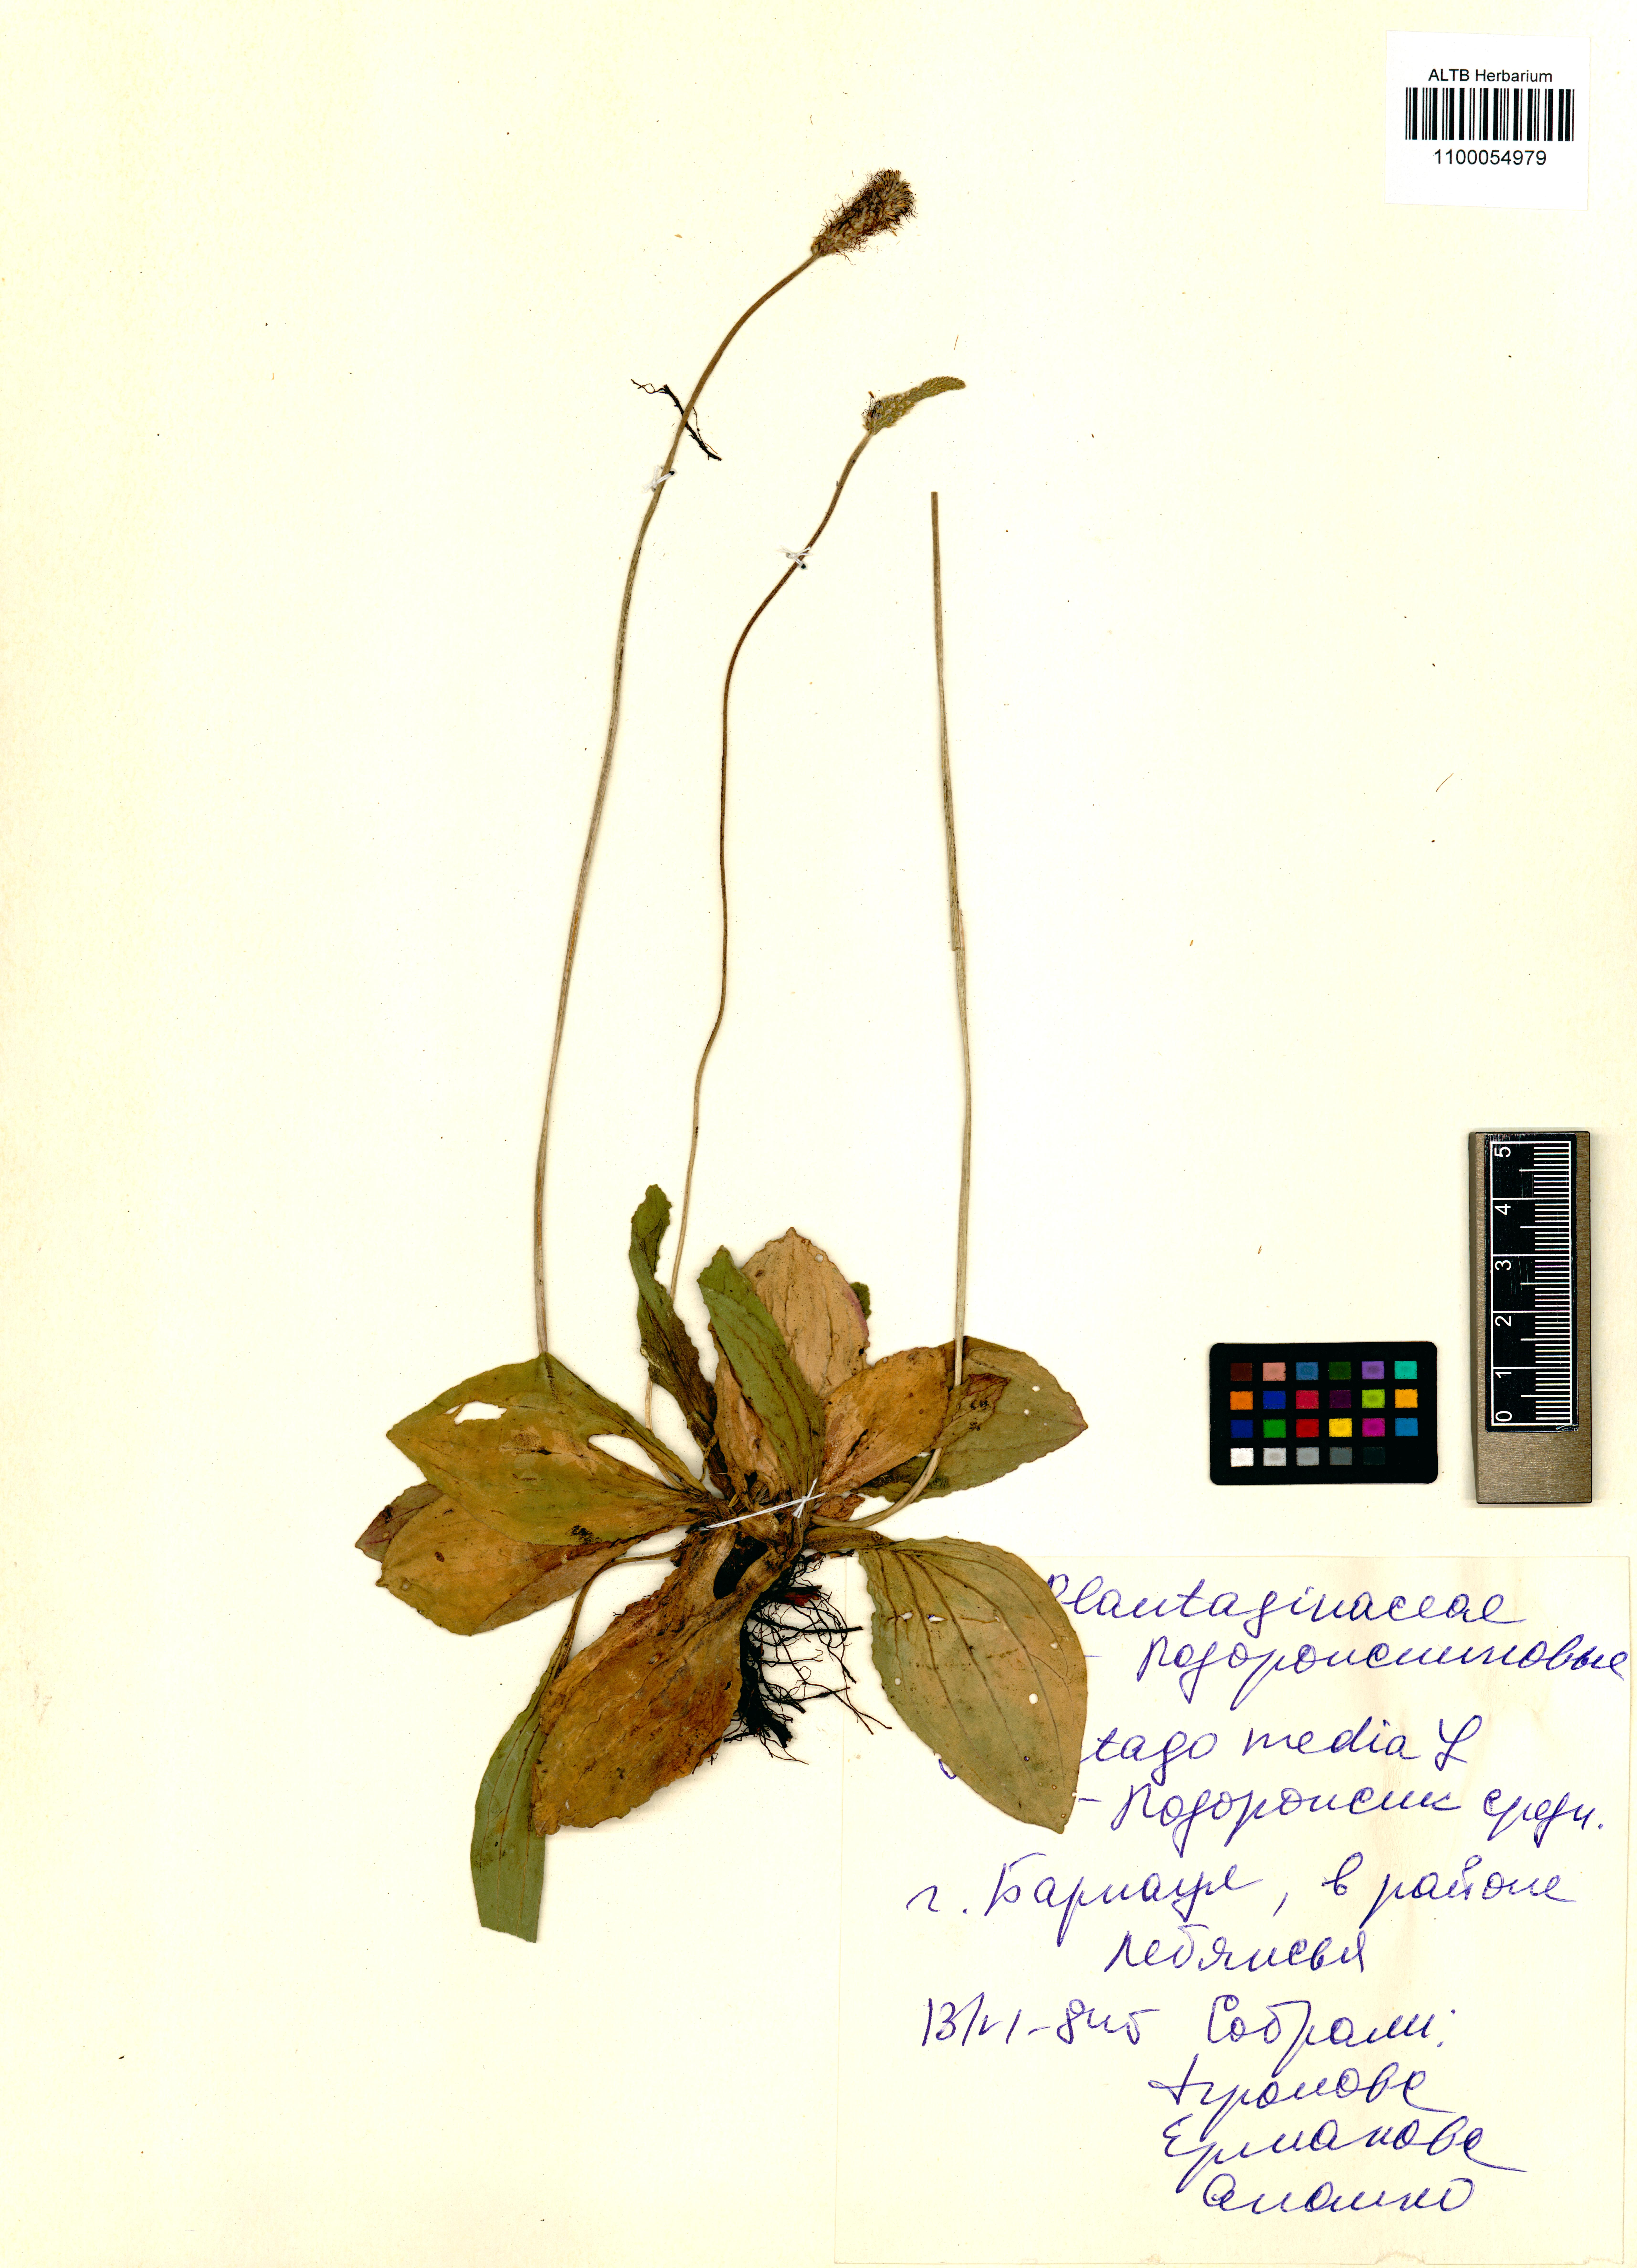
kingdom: Plantae
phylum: Tracheophyta
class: Magnoliopsida
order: Lamiales
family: Plantaginaceae
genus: Plantago
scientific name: Plantago media
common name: Hoary plantain
